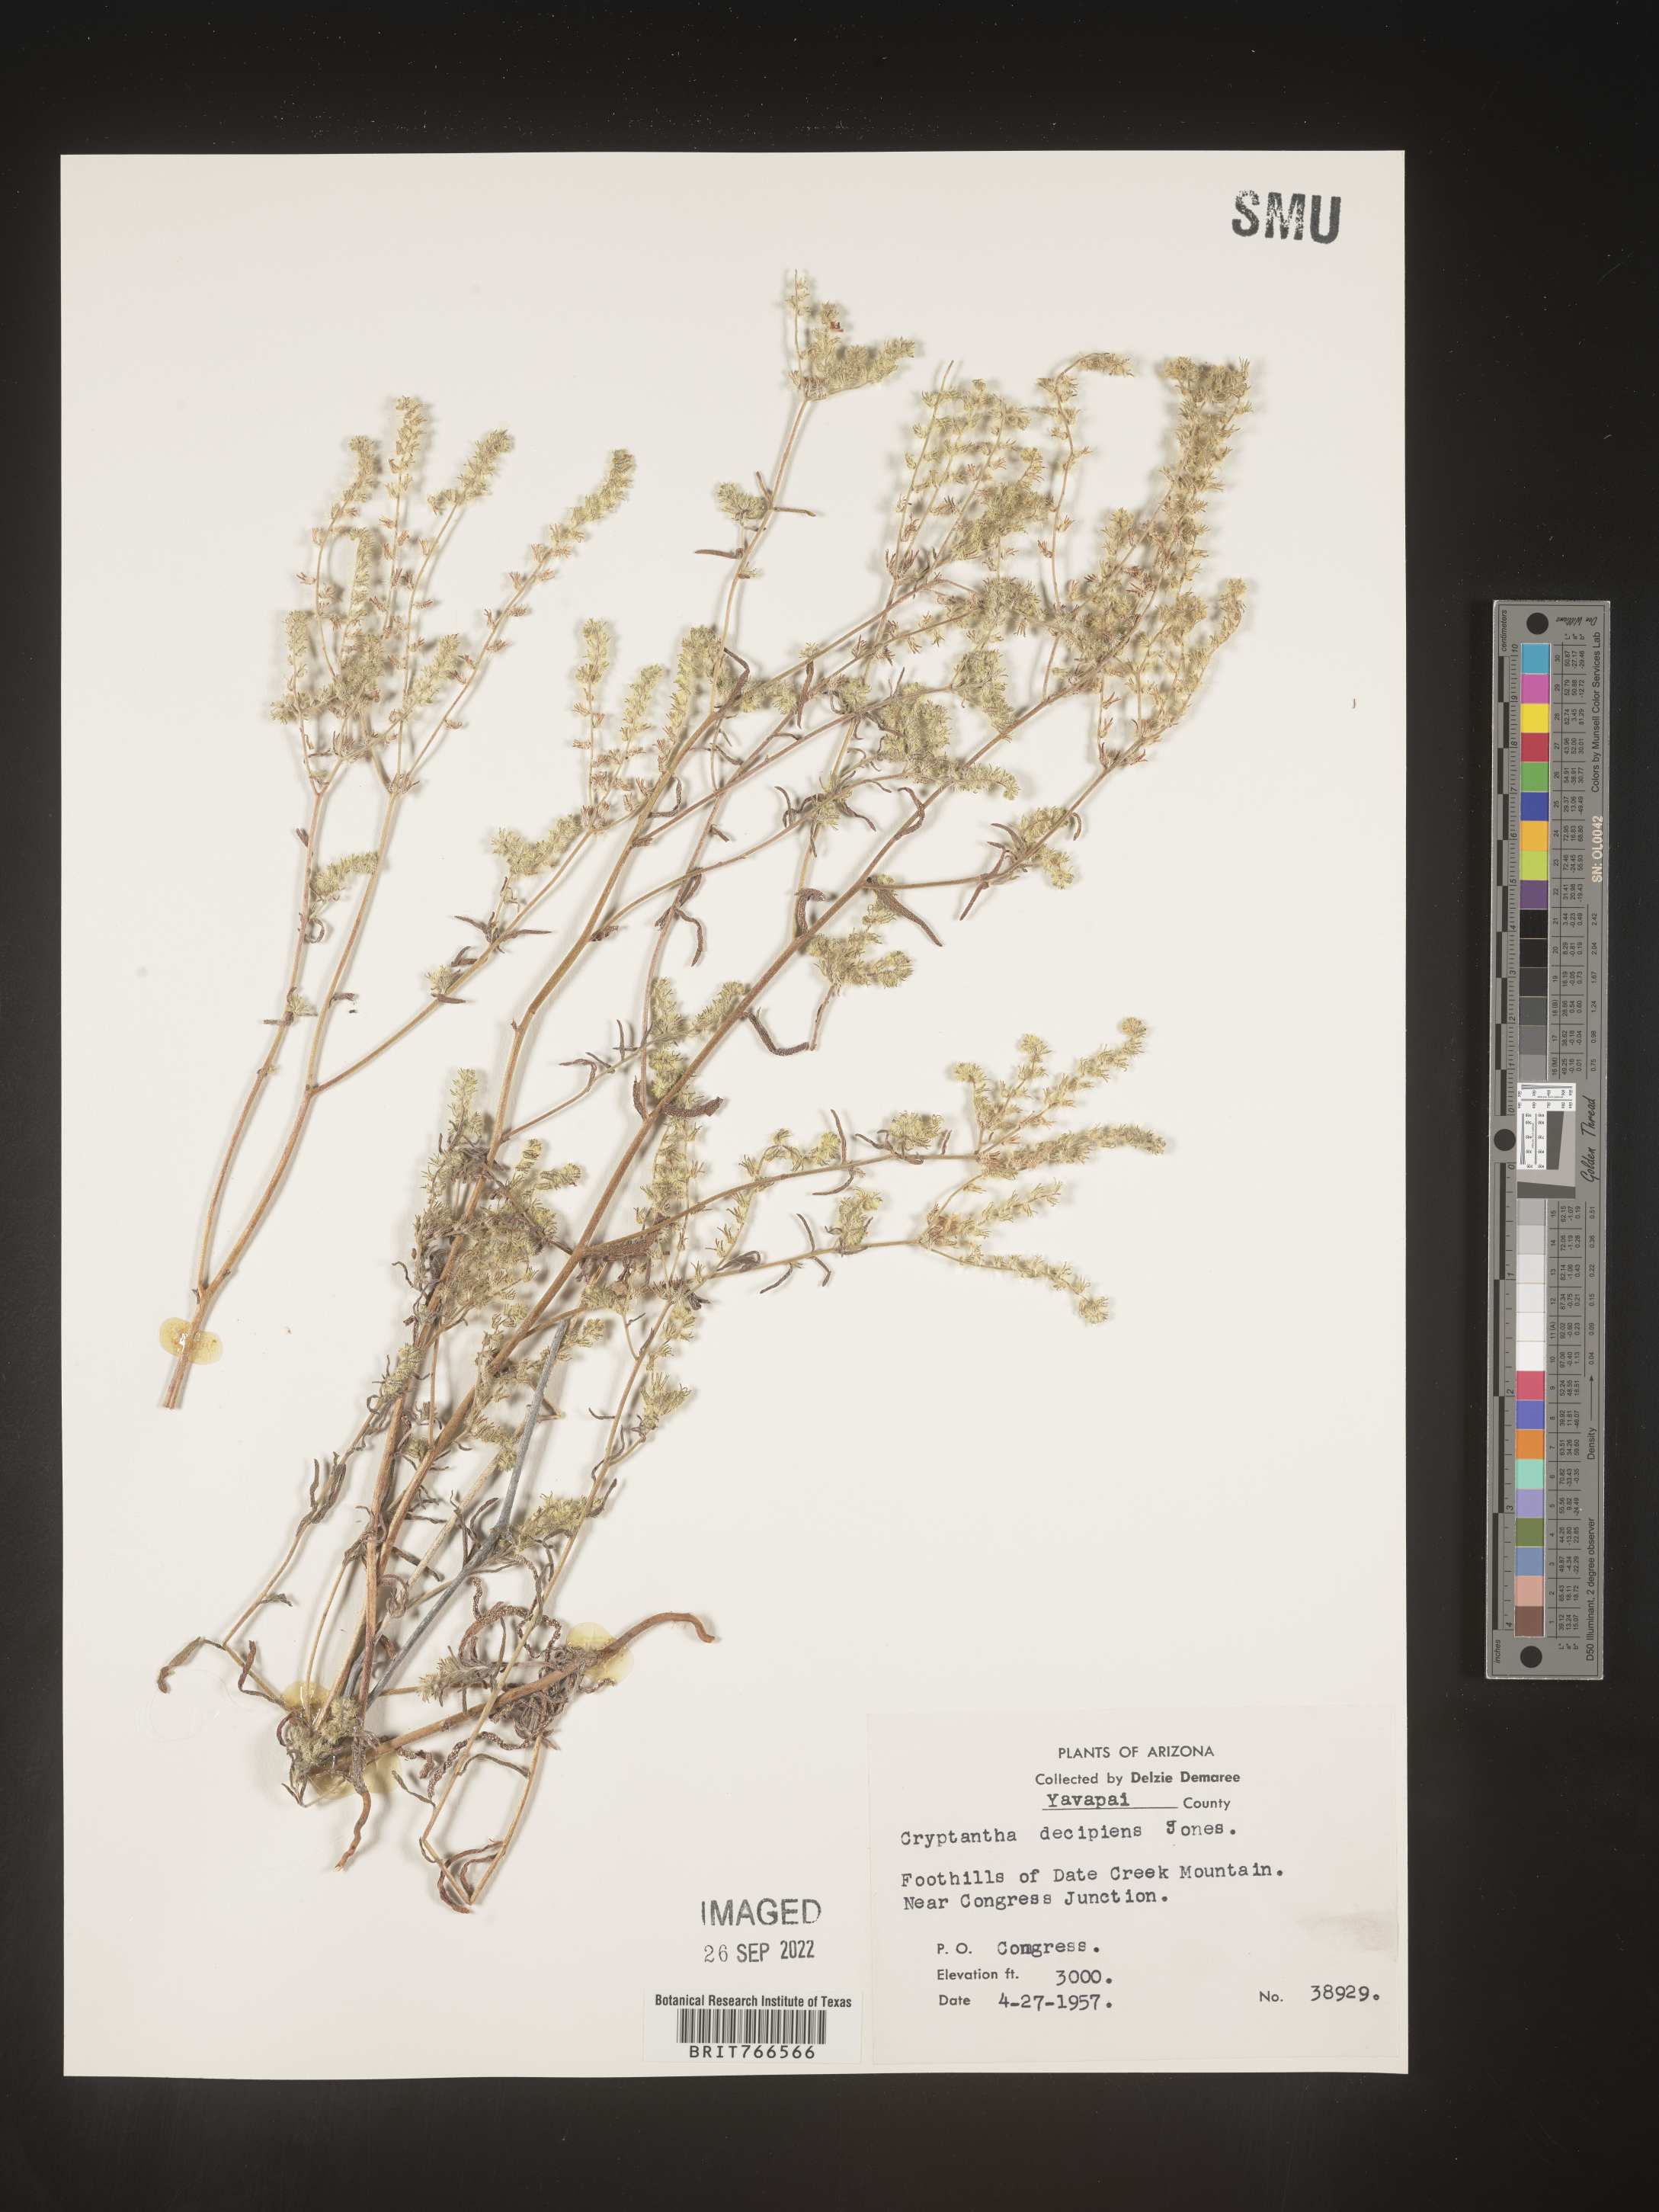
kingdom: Plantae
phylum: Tracheophyta
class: Magnoliopsida
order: Boraginales
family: Boraginaceae
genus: Cryptantha
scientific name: Cryptantha
